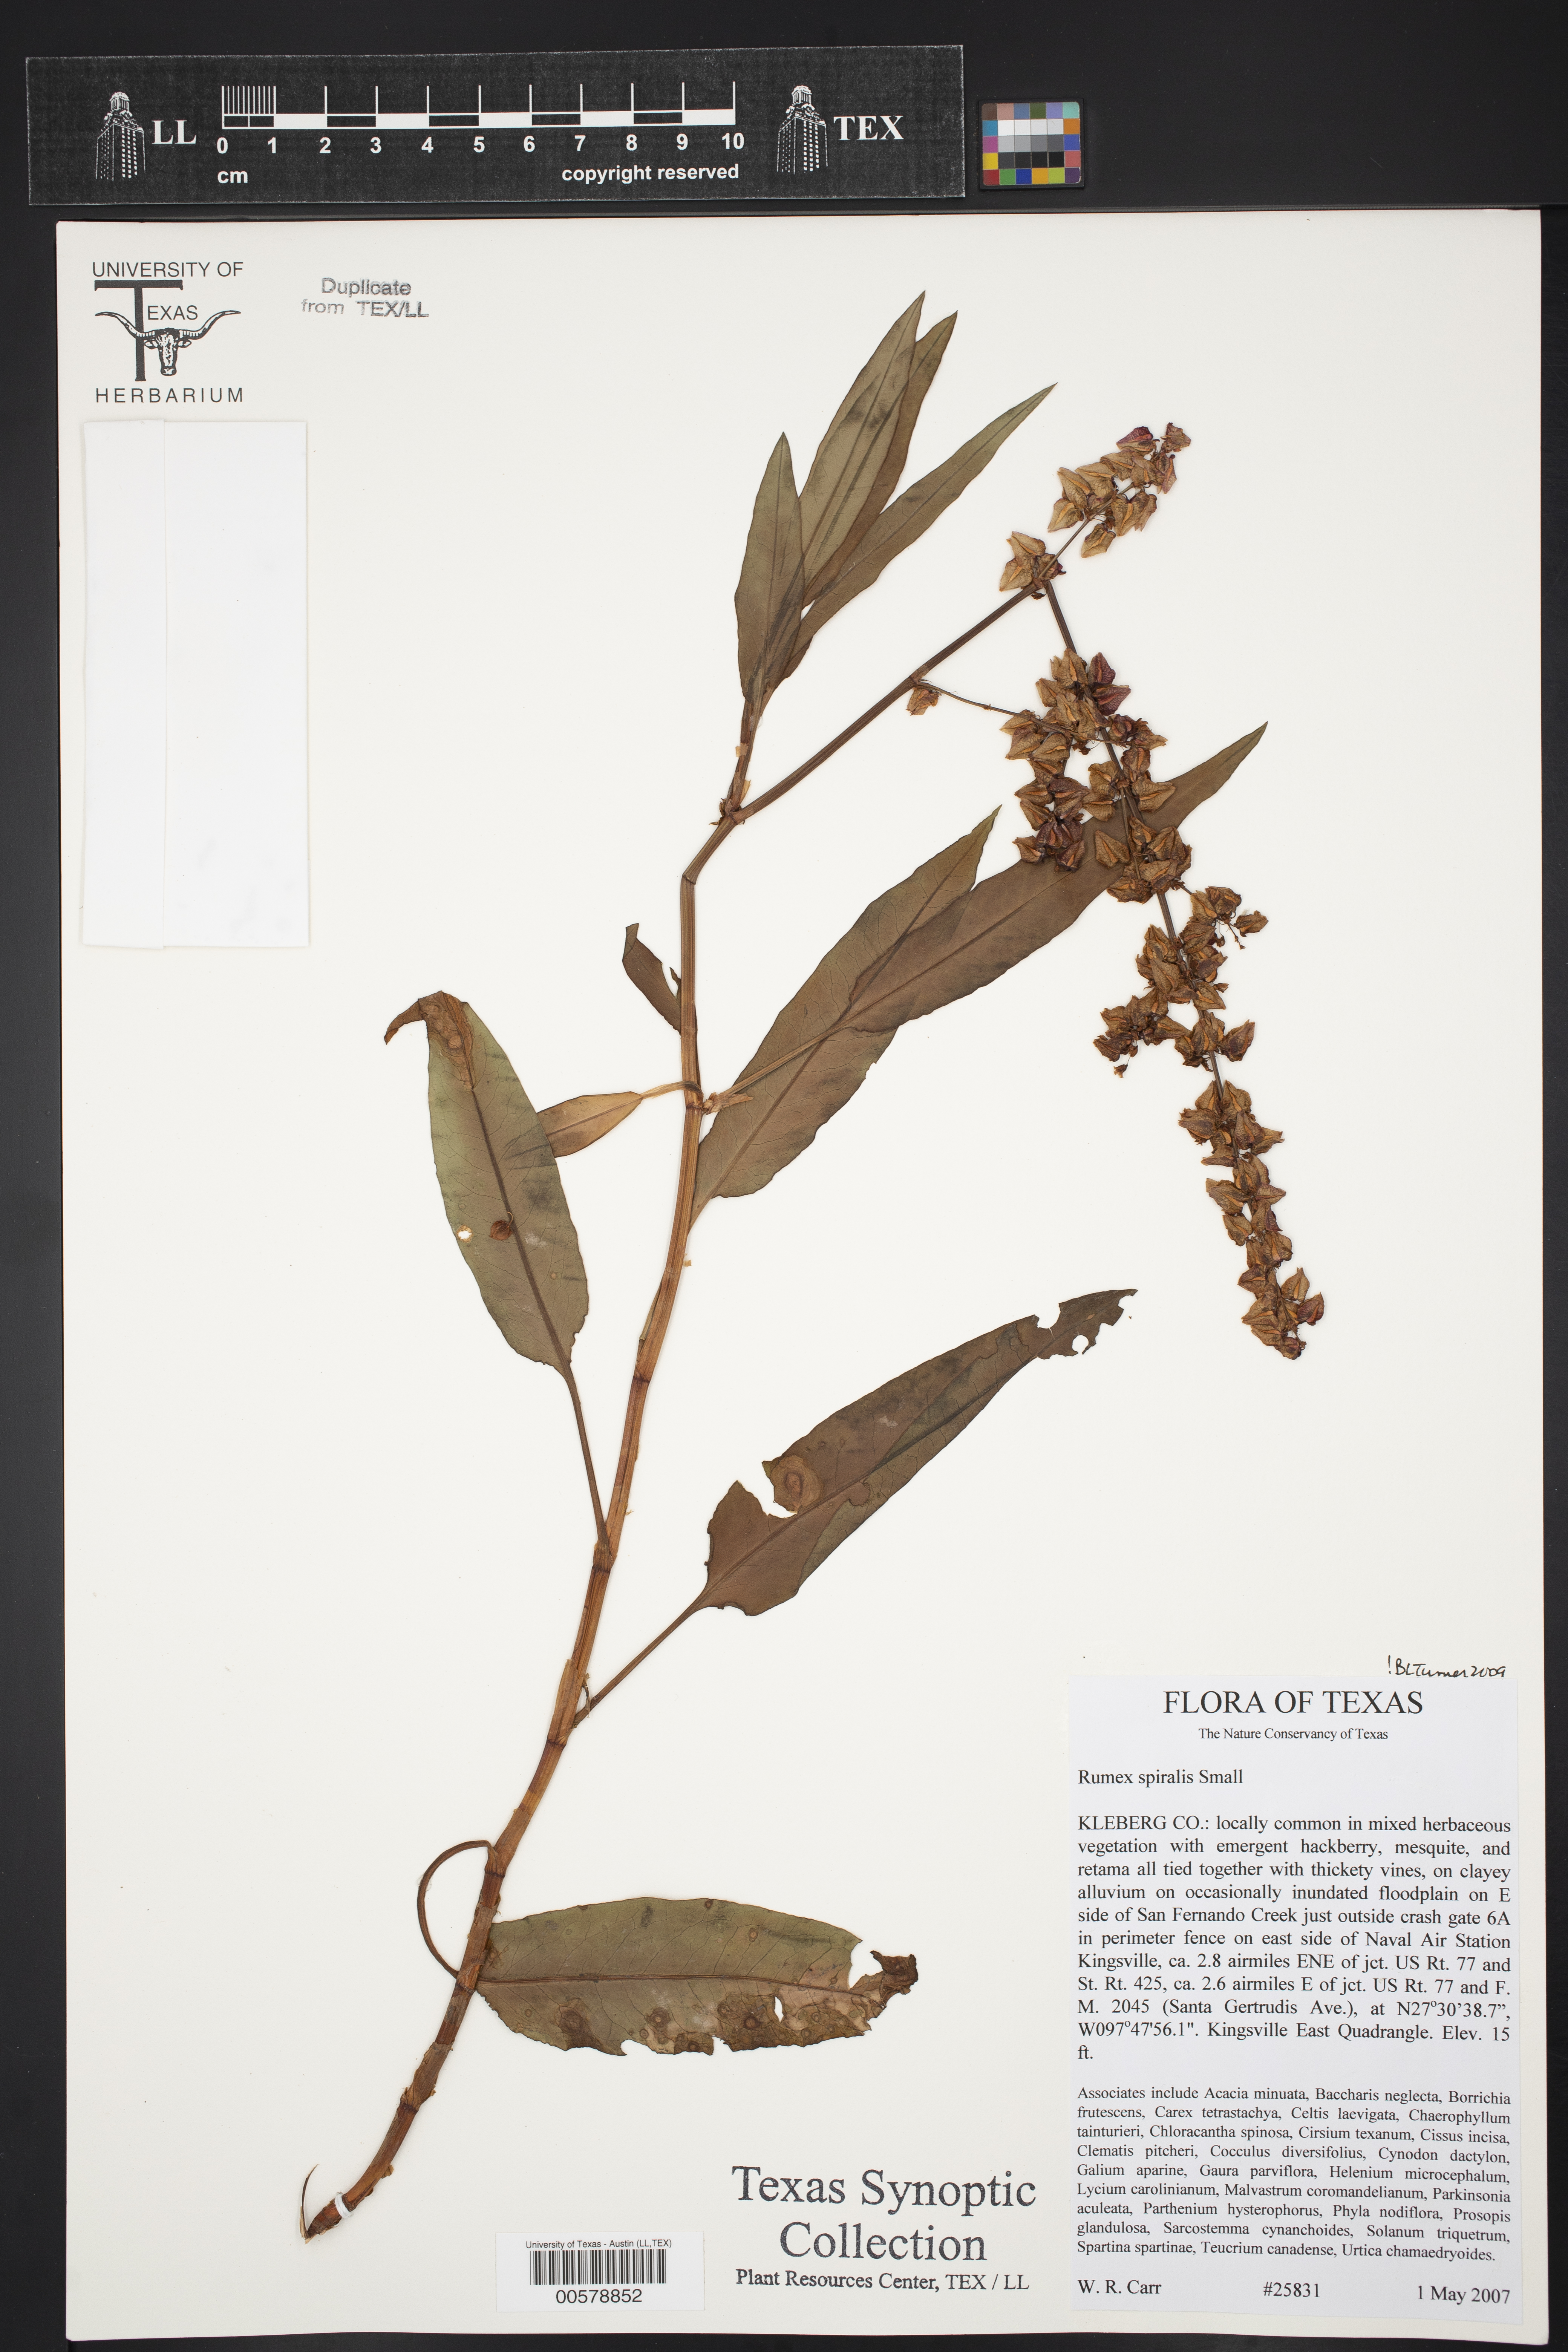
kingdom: Plantae
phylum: Tracheophyta
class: Magnoliopsida
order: Caryophyllales
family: Polygonaceae
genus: Rumex
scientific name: Rumex spiralis
